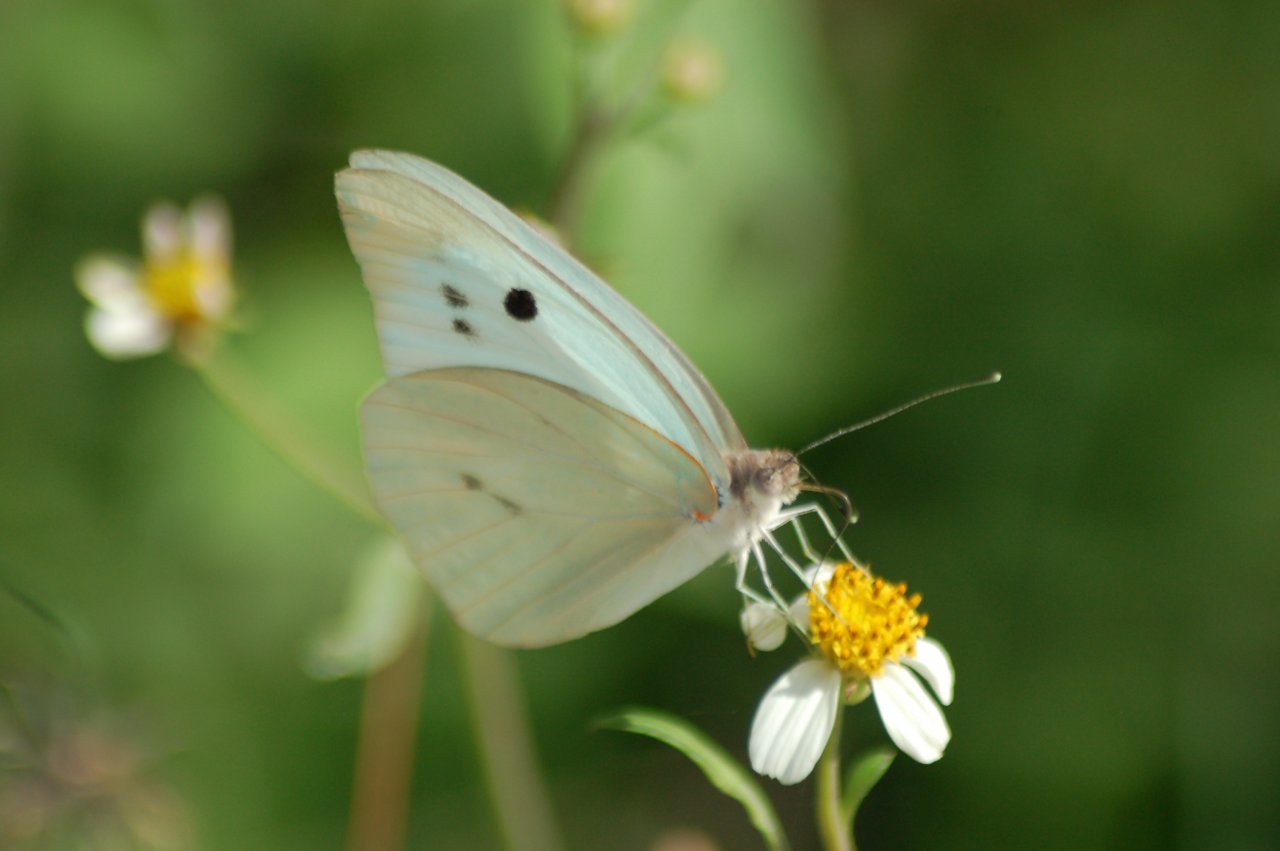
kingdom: Animalia
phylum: Arthropoda
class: Insecta
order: Lepidoptera
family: Pieridae
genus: Ganyra
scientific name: Ganyra josephina
